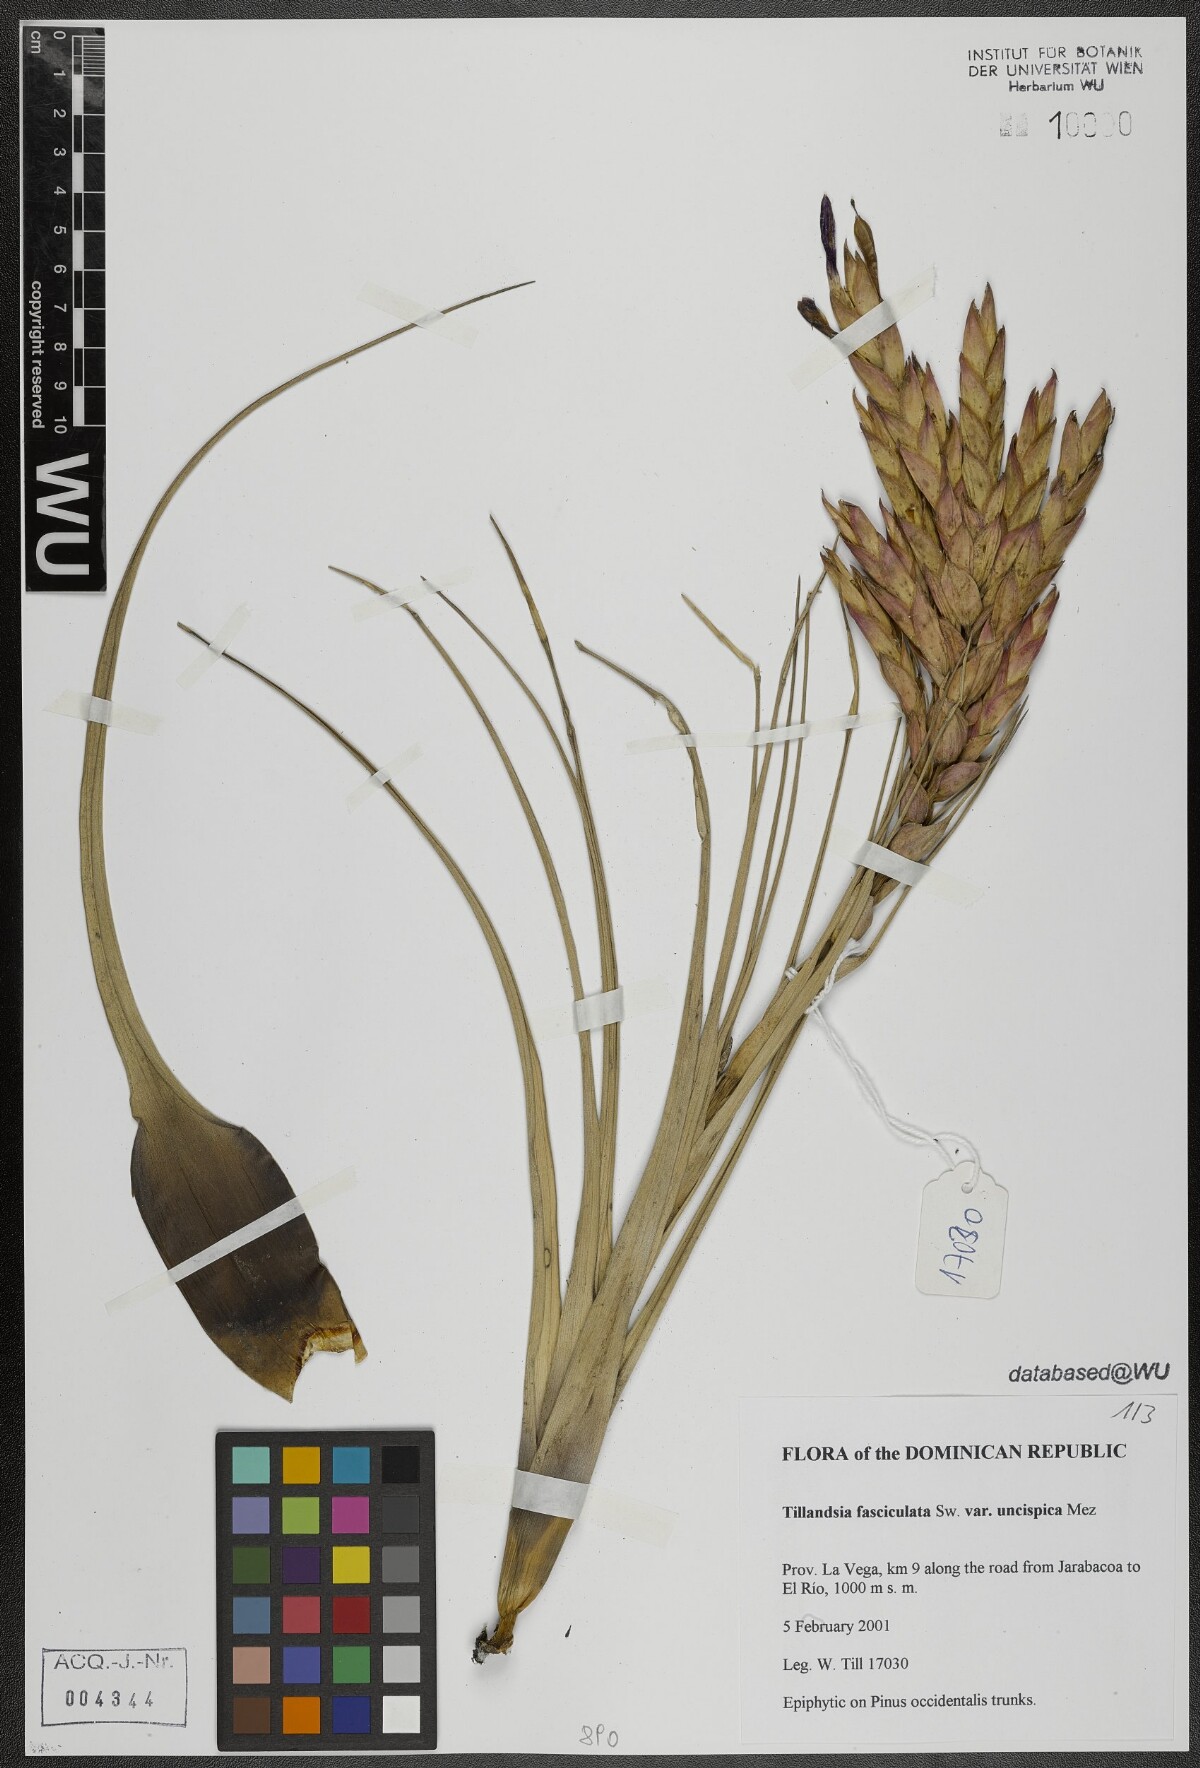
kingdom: Plantae
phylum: Tracheophyta
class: Liliopsida
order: Poales
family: Bromeliaceae
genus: Tillandsia
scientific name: Tillandsia fasciculata
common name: Giant airplant
